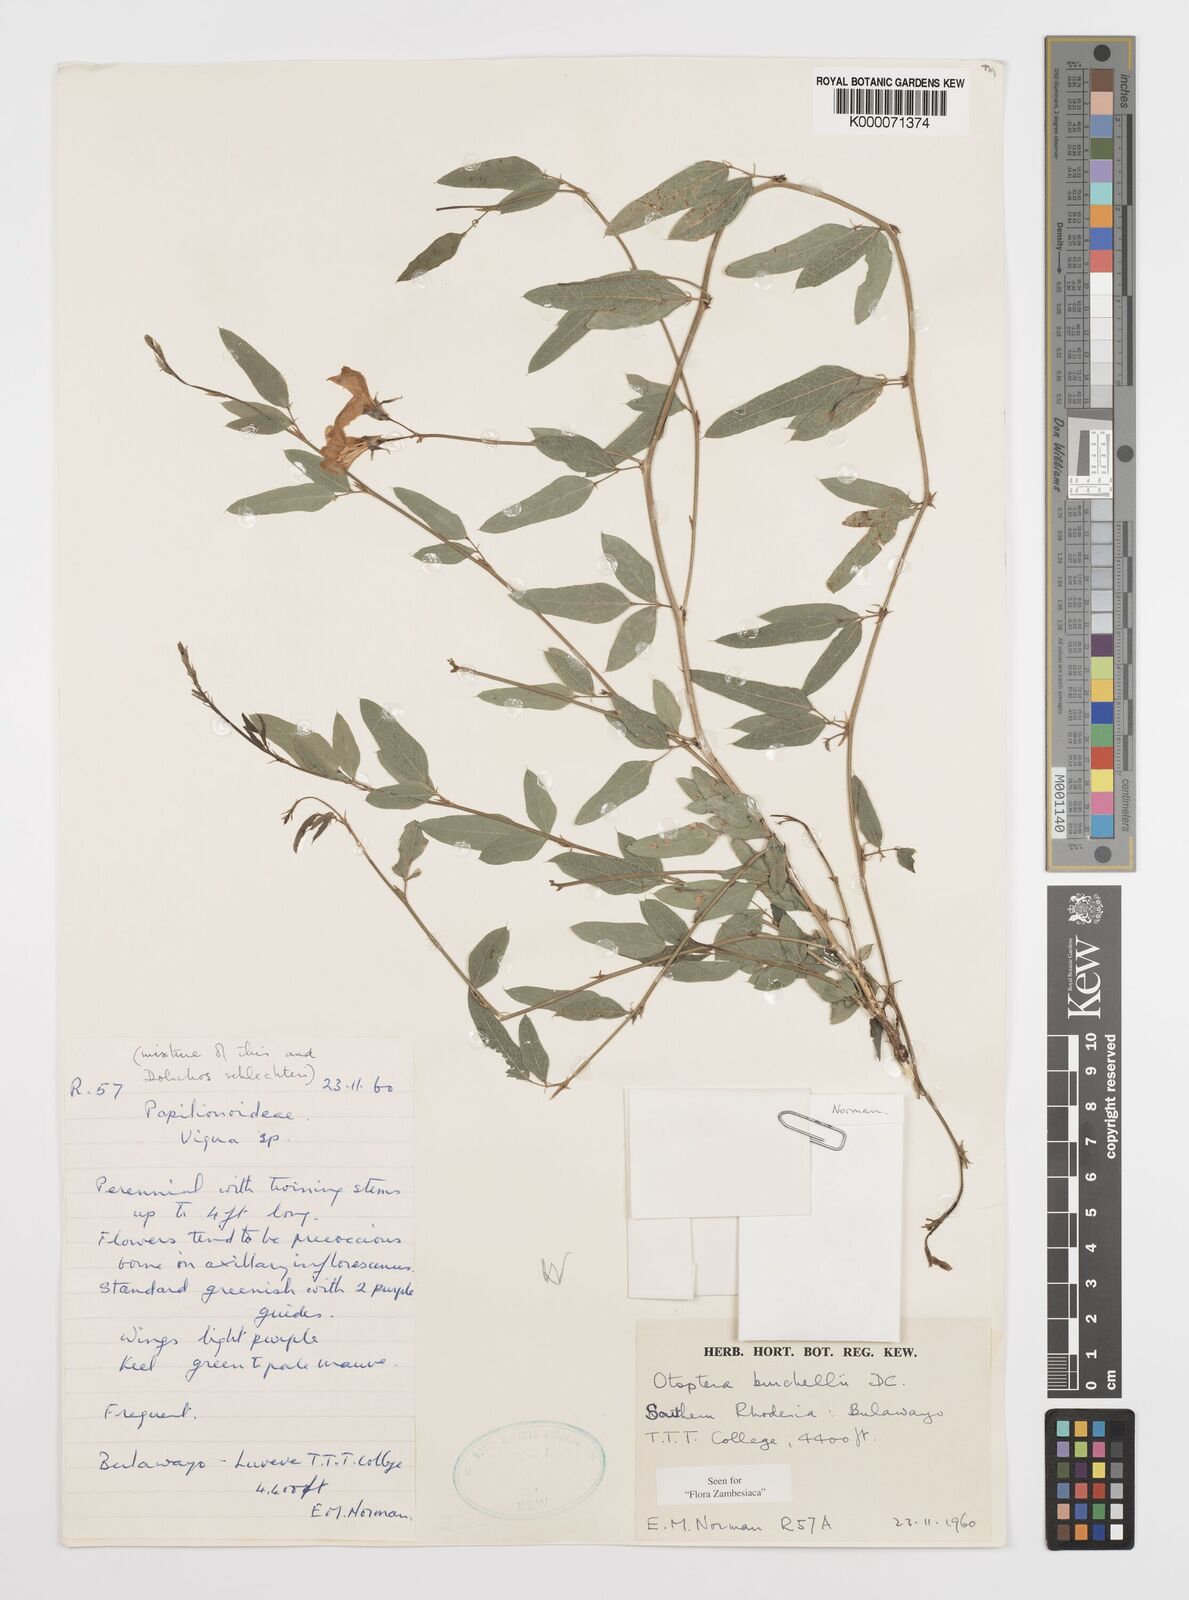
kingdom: Plantae
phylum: Tracheophyta
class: Magnoliopsida
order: Fabales
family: Fabaceae
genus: Otoptera
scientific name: Otoptera burchellii
